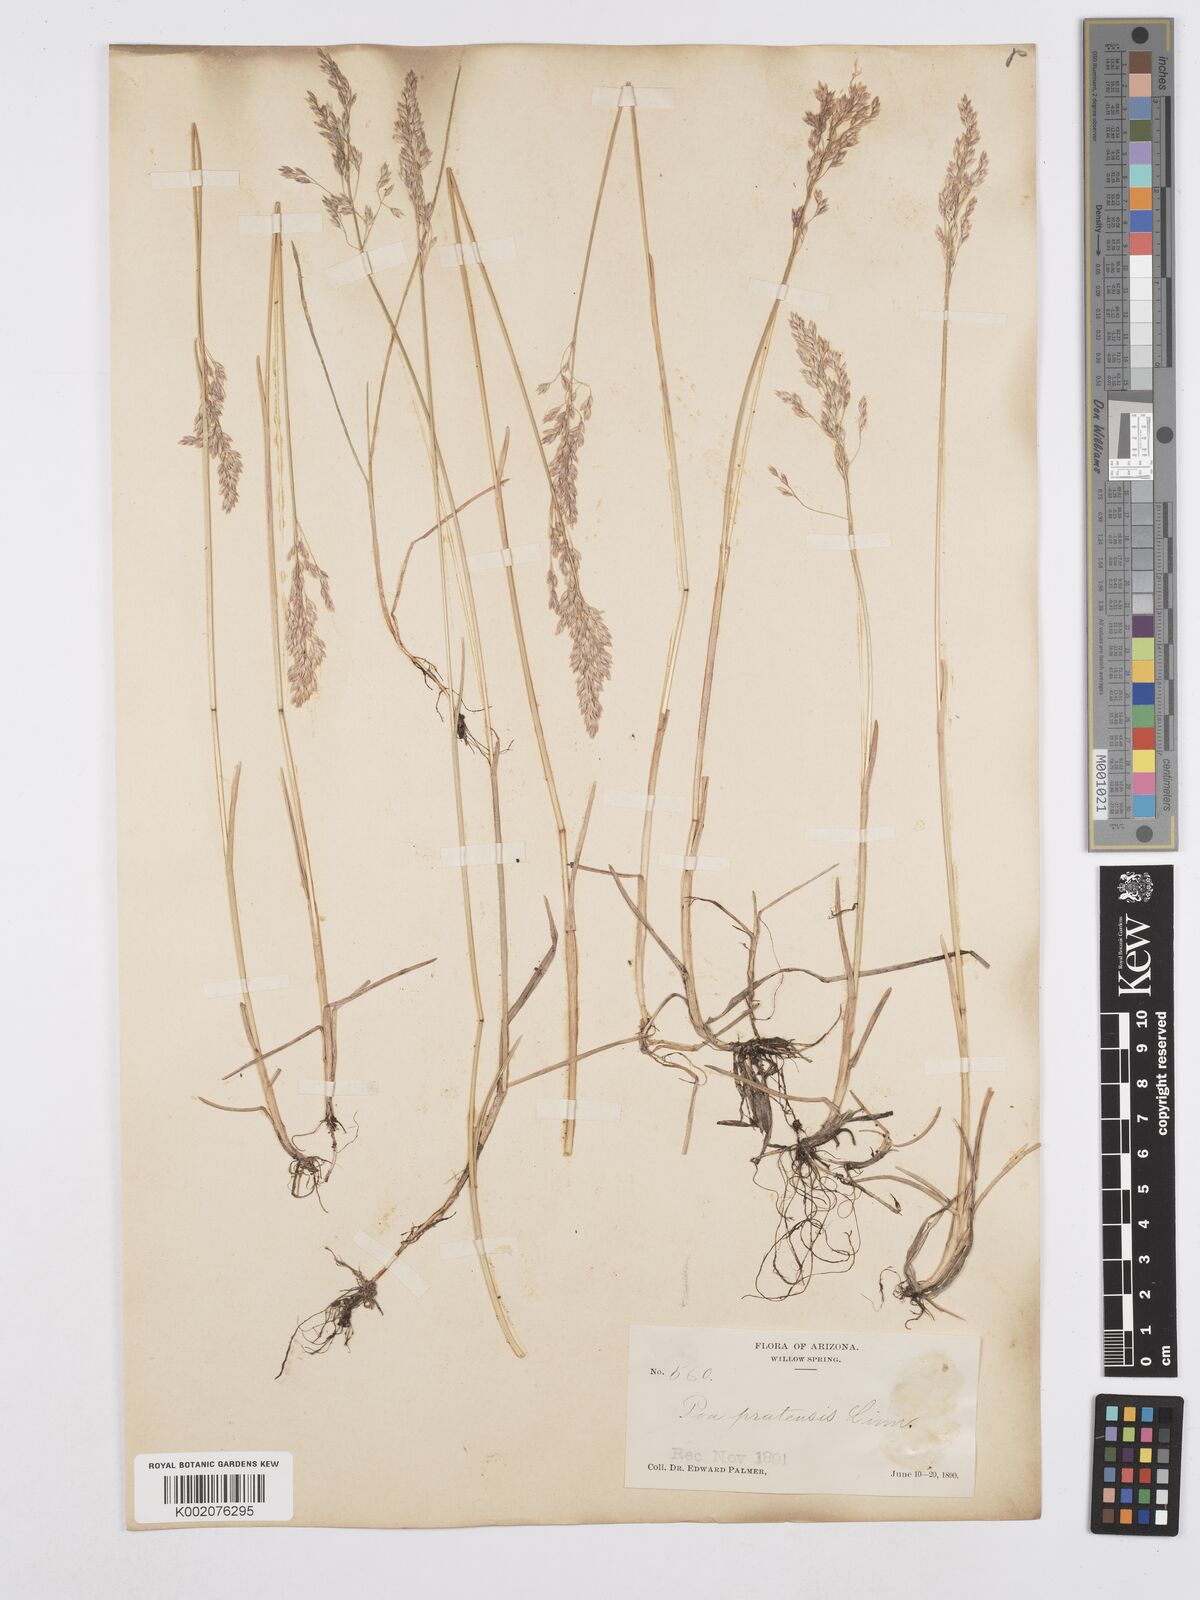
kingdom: Plantae
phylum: Tracheophyta
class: Liliopsida
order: Poales
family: Poaceae
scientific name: Poaceae
